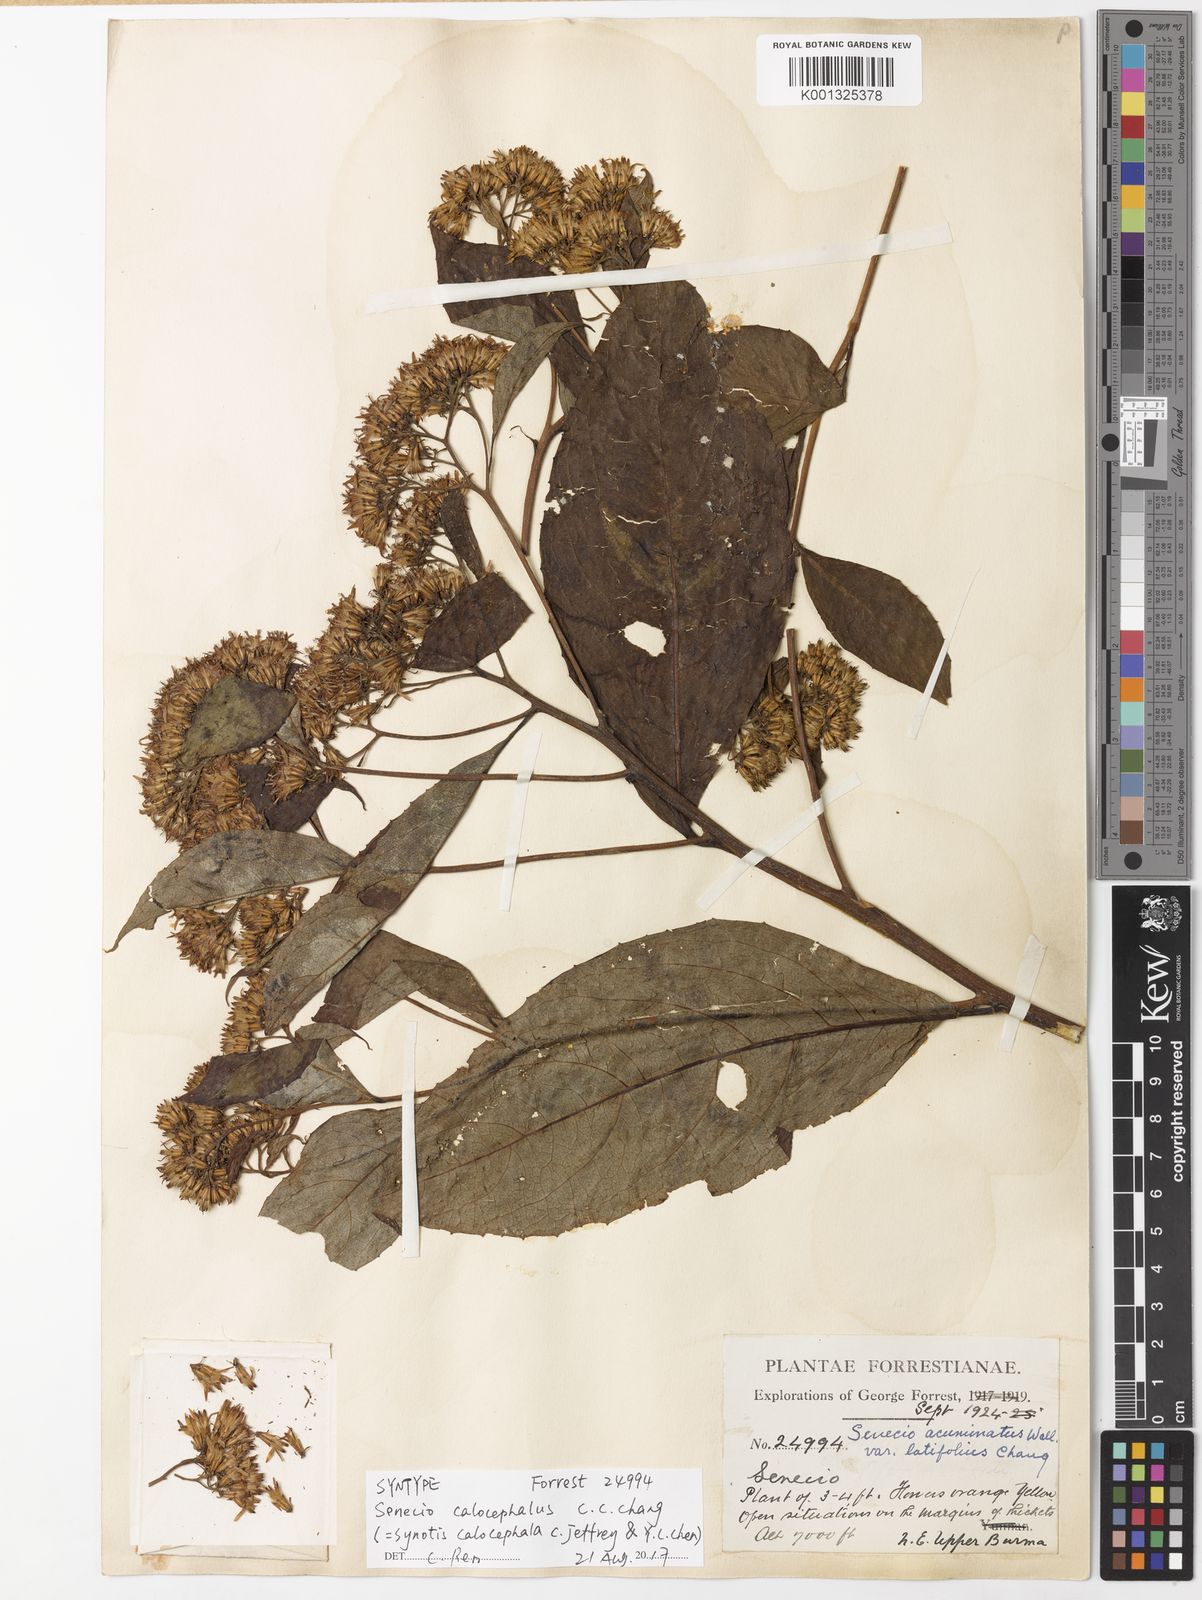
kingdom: Plantae
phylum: Tracheophyta
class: Magnoliopsida
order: Asterales
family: Asteraceae
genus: Synotis
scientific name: Synotis calocephala
